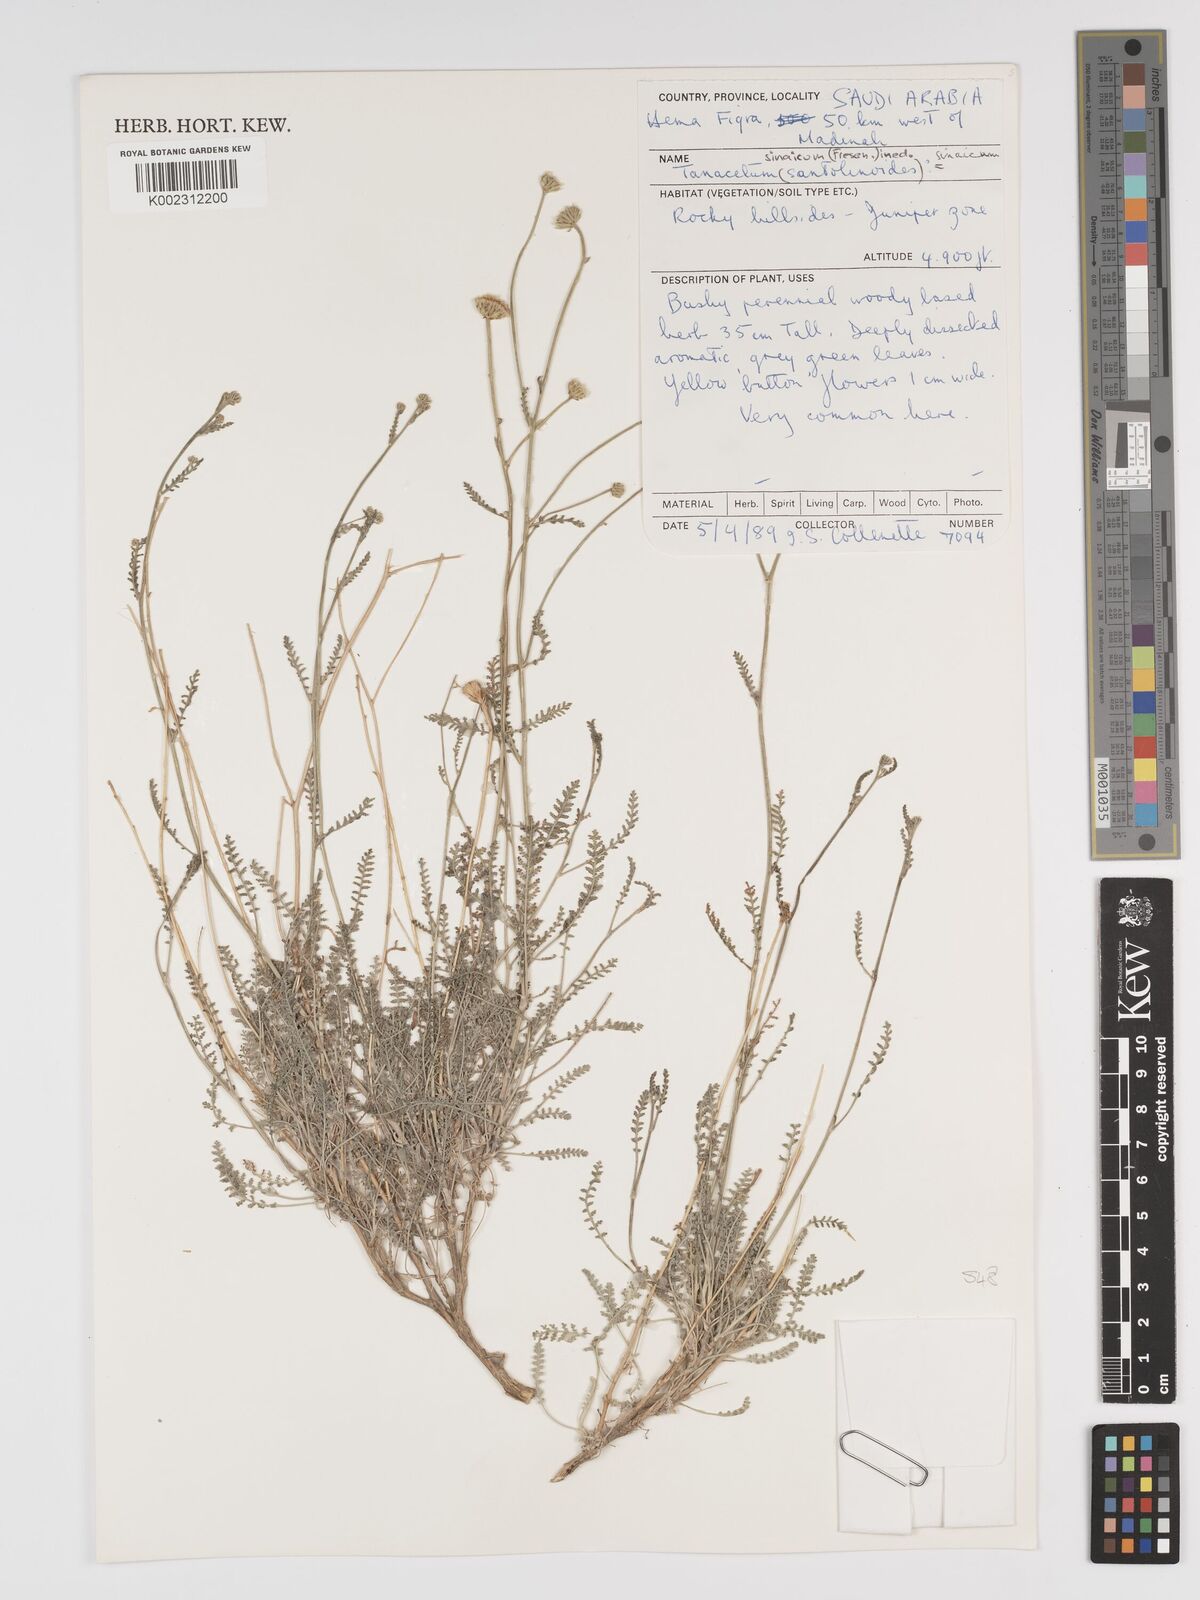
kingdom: Plantae
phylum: Tracheophyta
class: Magnoliopsida
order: Asterales
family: Asteraceae
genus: Tanacetum
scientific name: Tanacetum sinaicum
